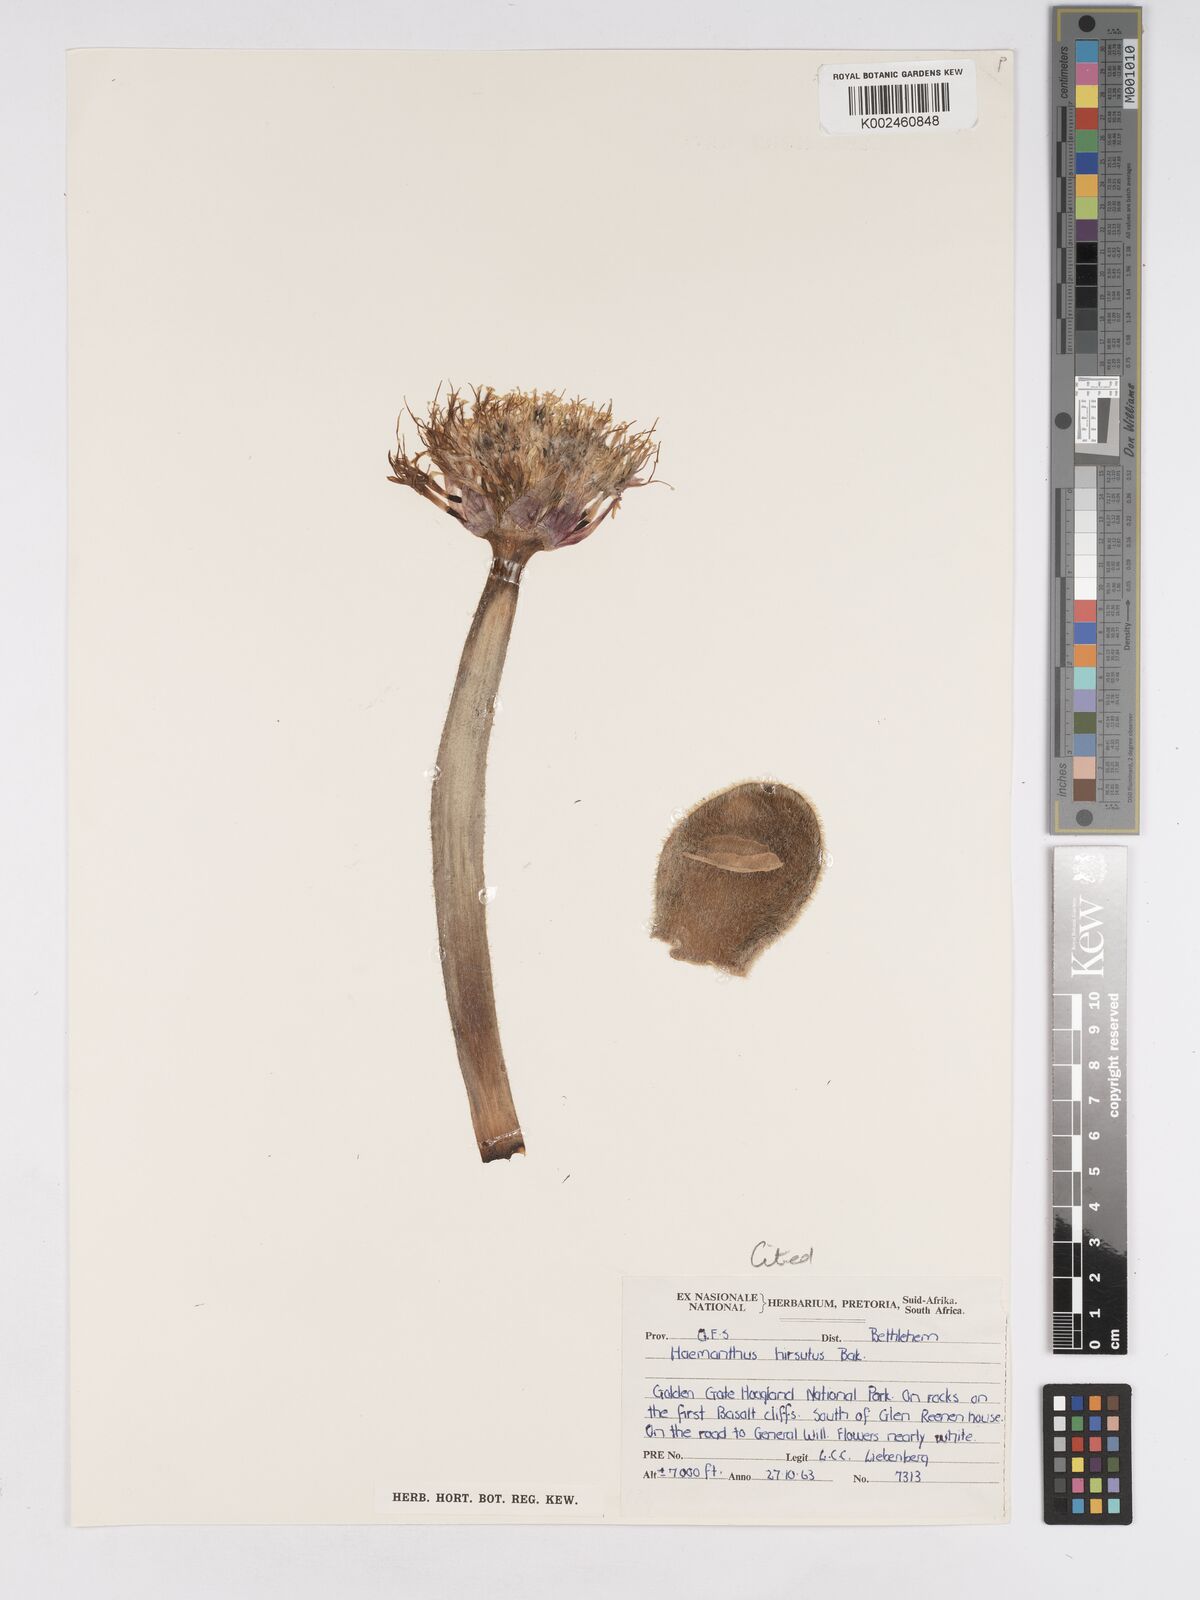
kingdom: Plantae
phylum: Tracheophyta
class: Liliopsida
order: Asparagales
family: Amaryllidaceae
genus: Haemanthus
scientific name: Haemanthus humilis
